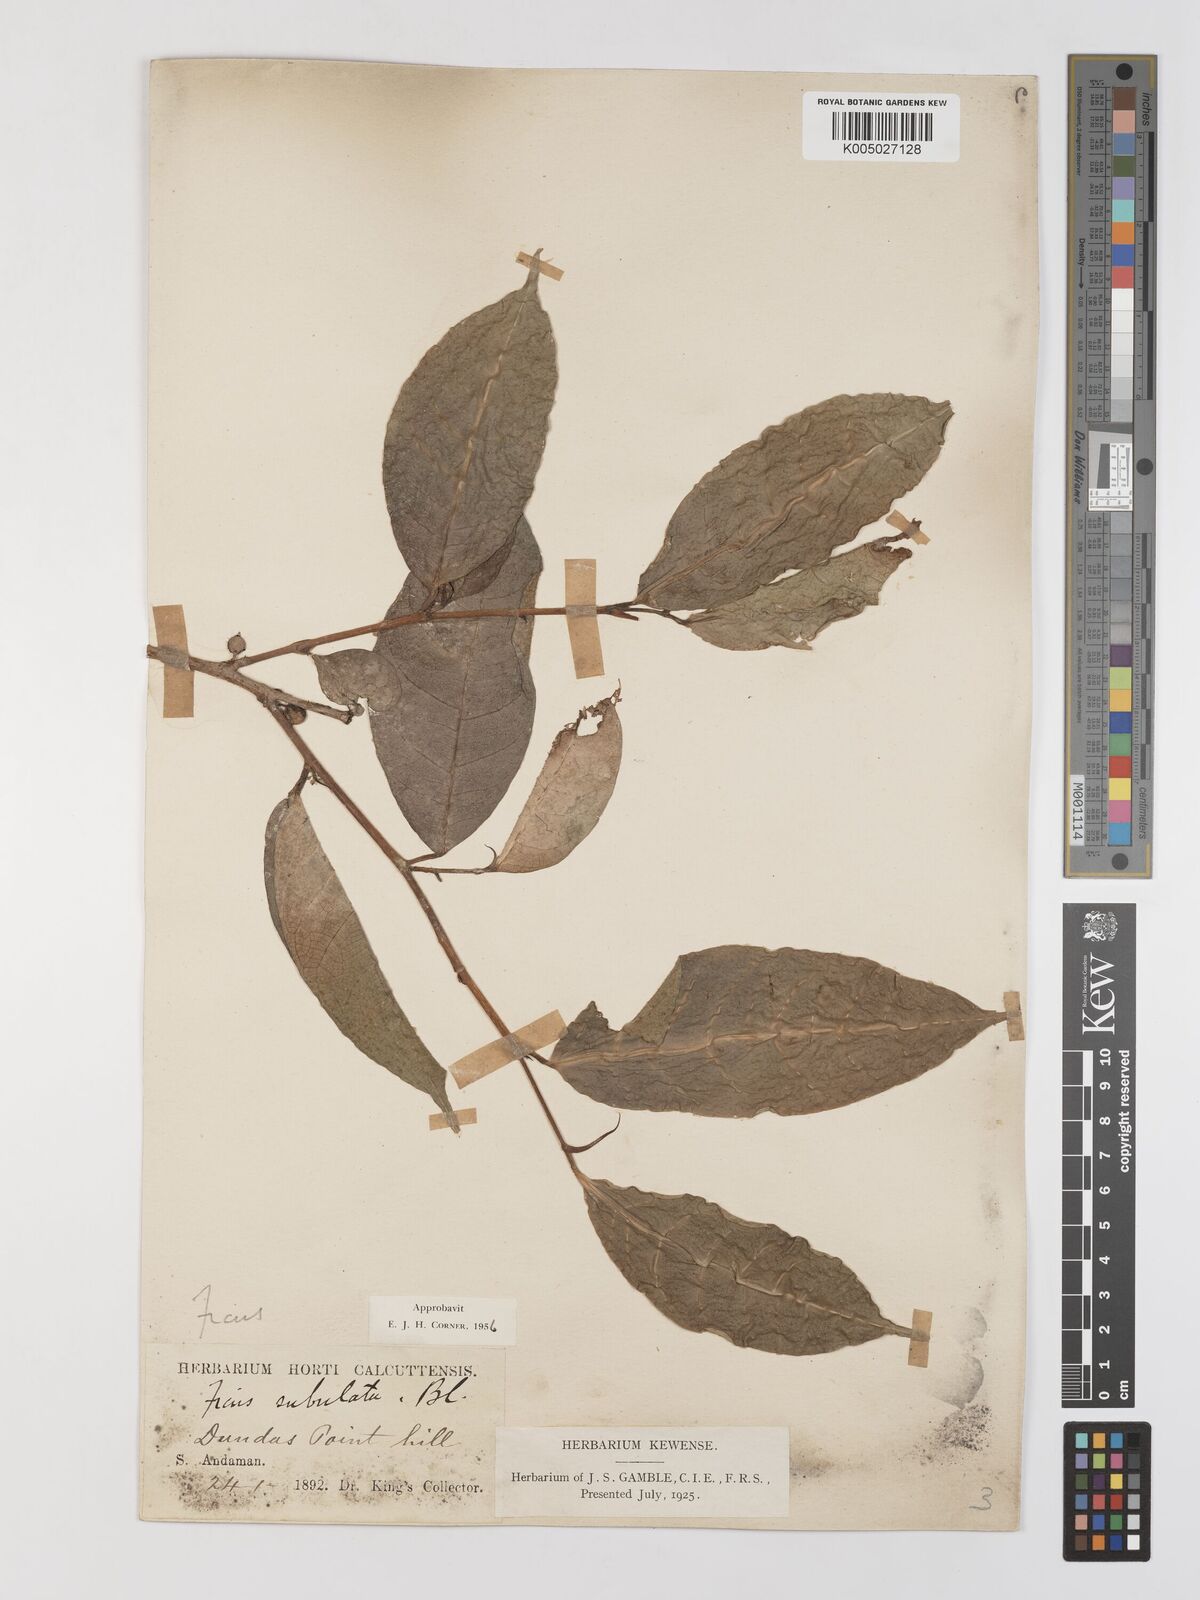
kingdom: Plantae
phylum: Tracheophyta
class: Magnoliopsida
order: Rosales
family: Moraceae
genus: Ficus
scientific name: Ficus subulata
